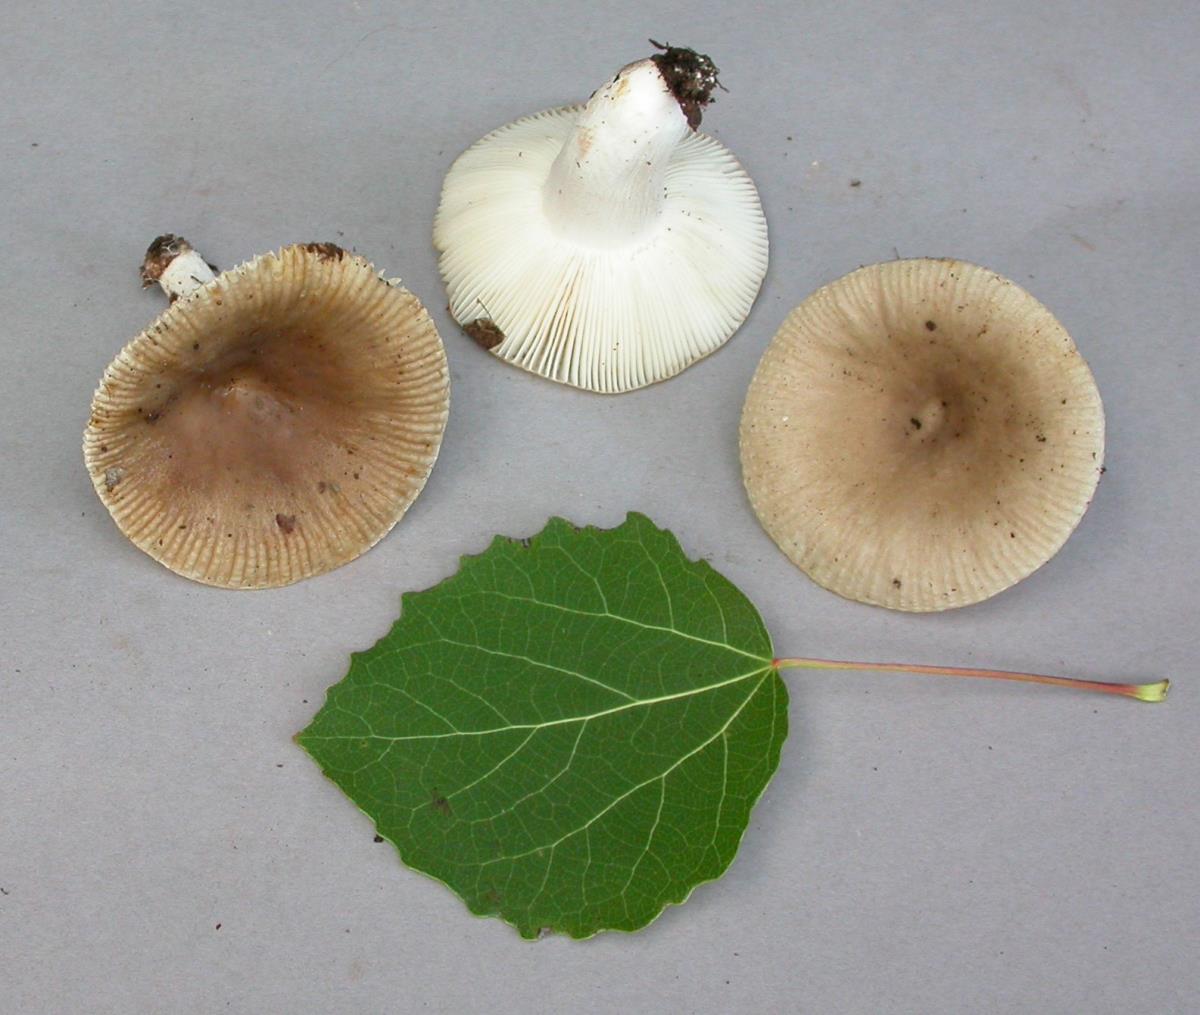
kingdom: Fungi
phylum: Basidiomycota
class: Agaricomycetes
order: Russulales
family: Russulaceae
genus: Russula
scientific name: Russula amoenolens
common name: Camembert brittlegill
